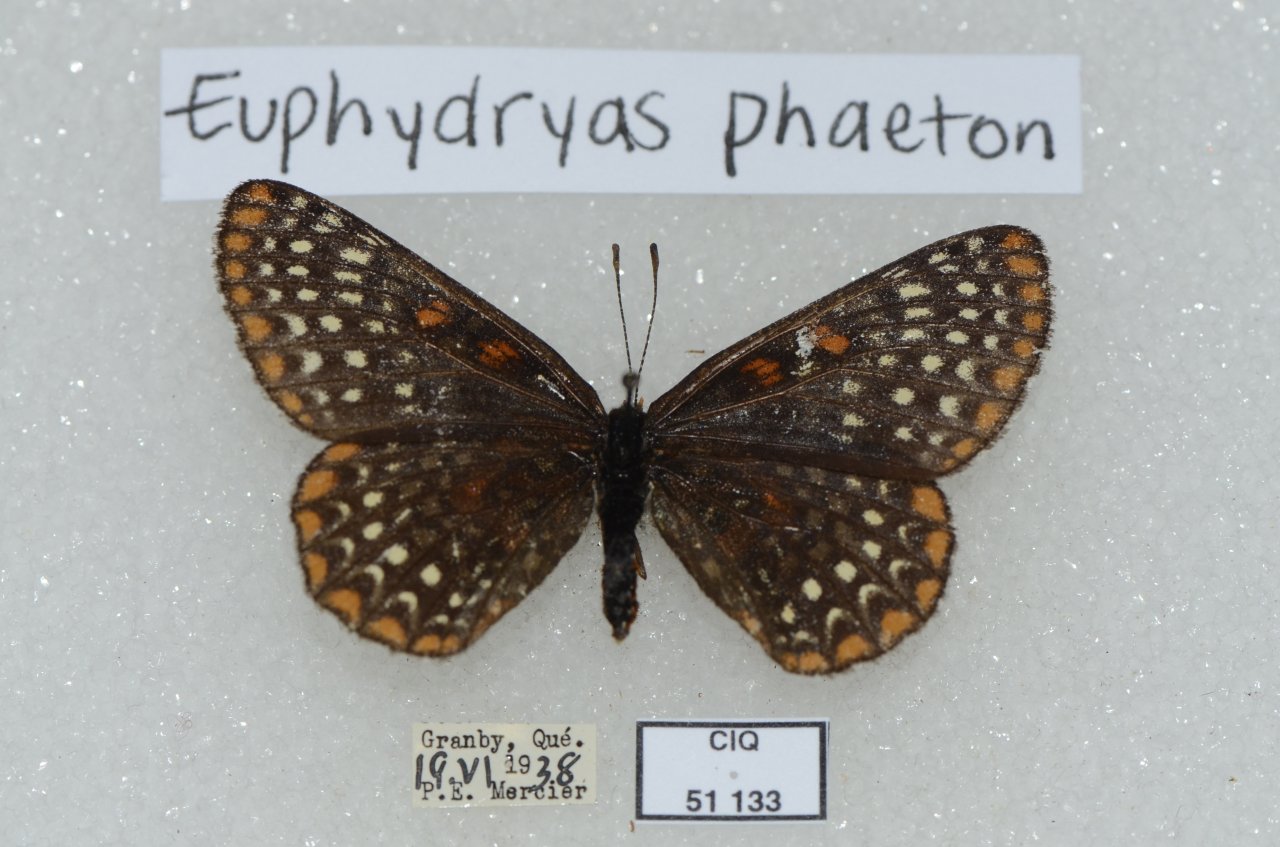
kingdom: Animalia
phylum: Arthropoda
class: Insecta
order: Lepidoptera
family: Nymphalidae
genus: Euphydryas
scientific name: Euphydryas phaeton
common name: Baltimore Checkerspot
